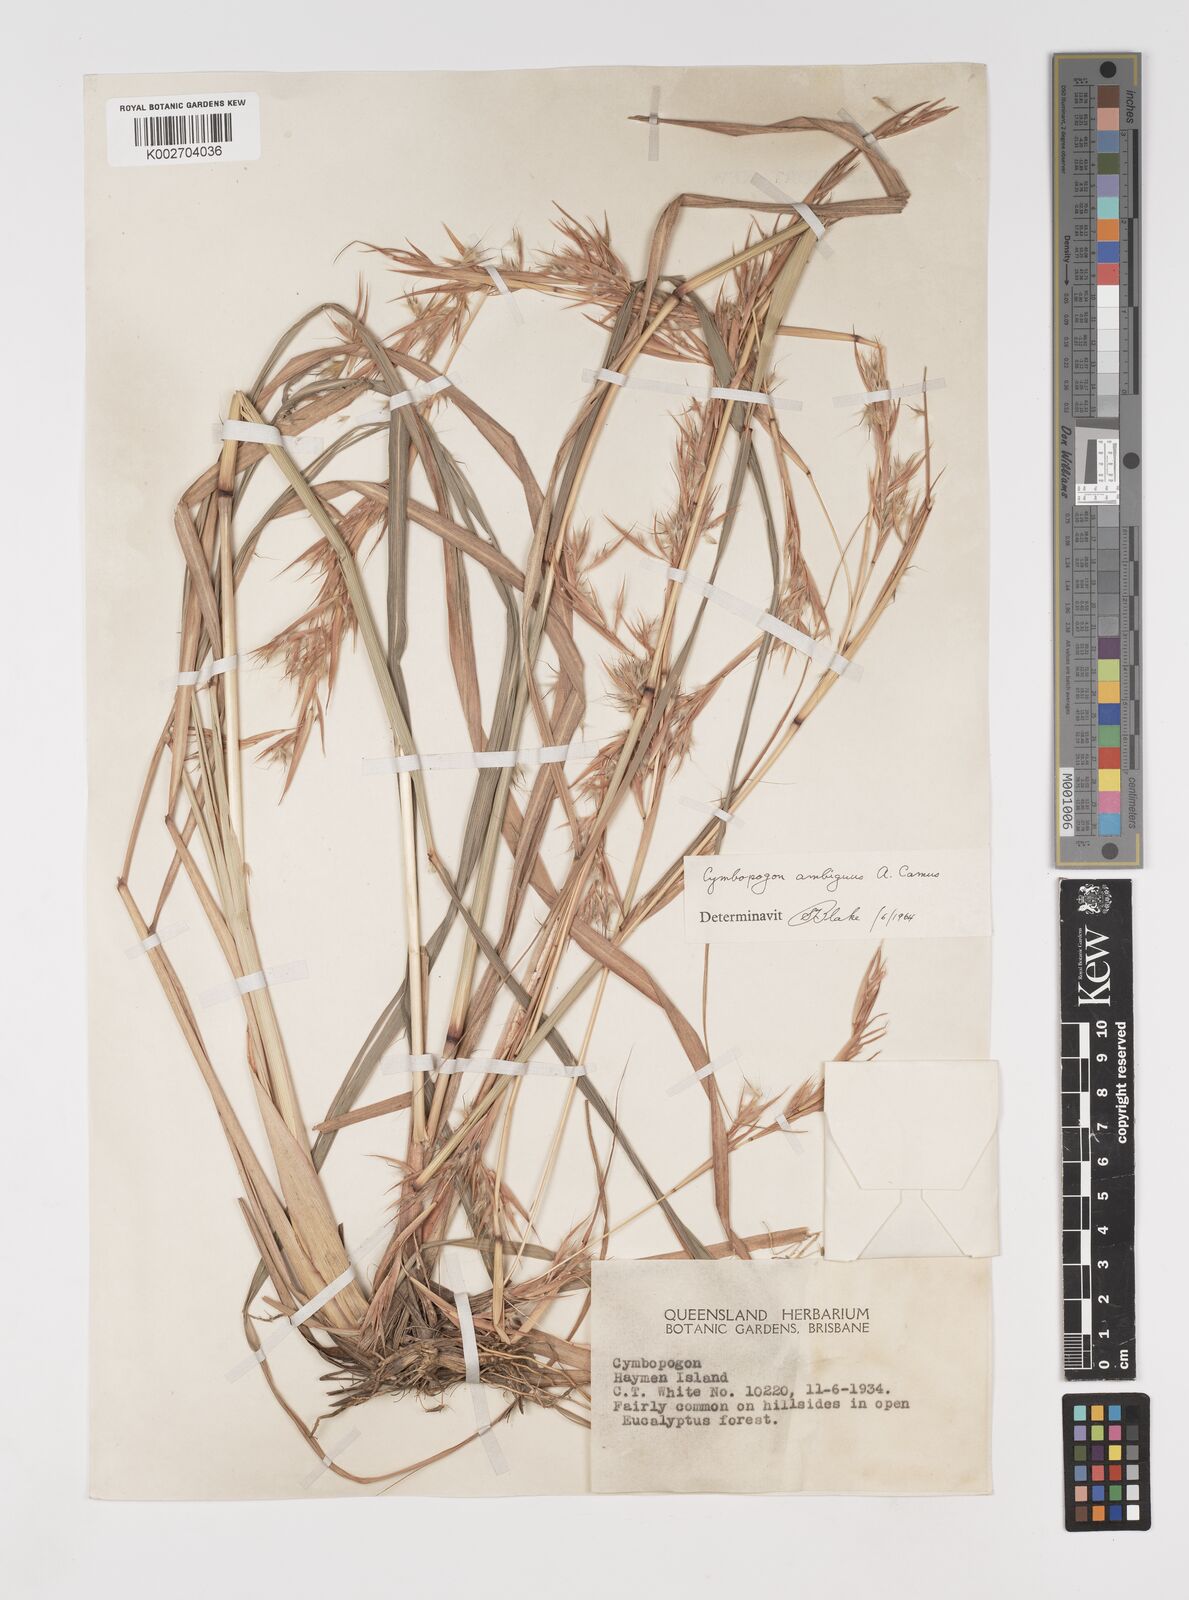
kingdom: Plantae
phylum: Tracheophyta
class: Liliopsida
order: Poales
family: Poaceae
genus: Cymbopogon
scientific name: Cymbopogon ambiguus
